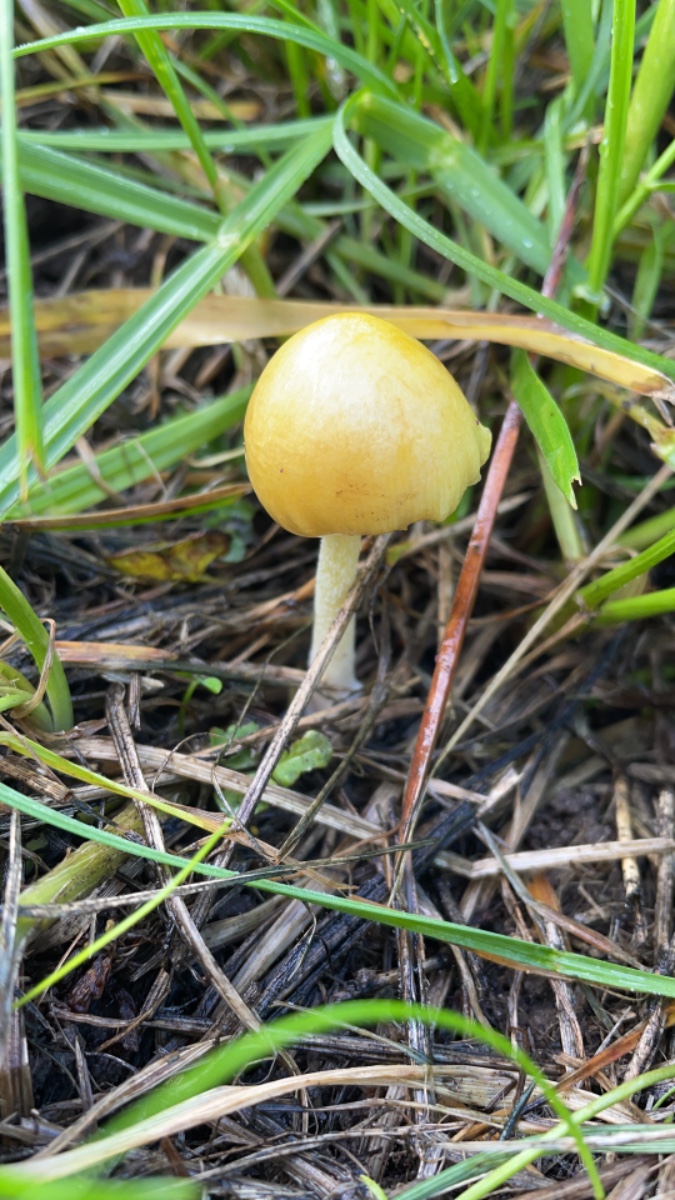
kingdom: Fungi
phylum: Basidiomycota
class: Agaricomycetes
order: Agaricales
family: Bolbitiaceae
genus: Bolbitius
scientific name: Bolbitius titubans
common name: almindelig gulhat
